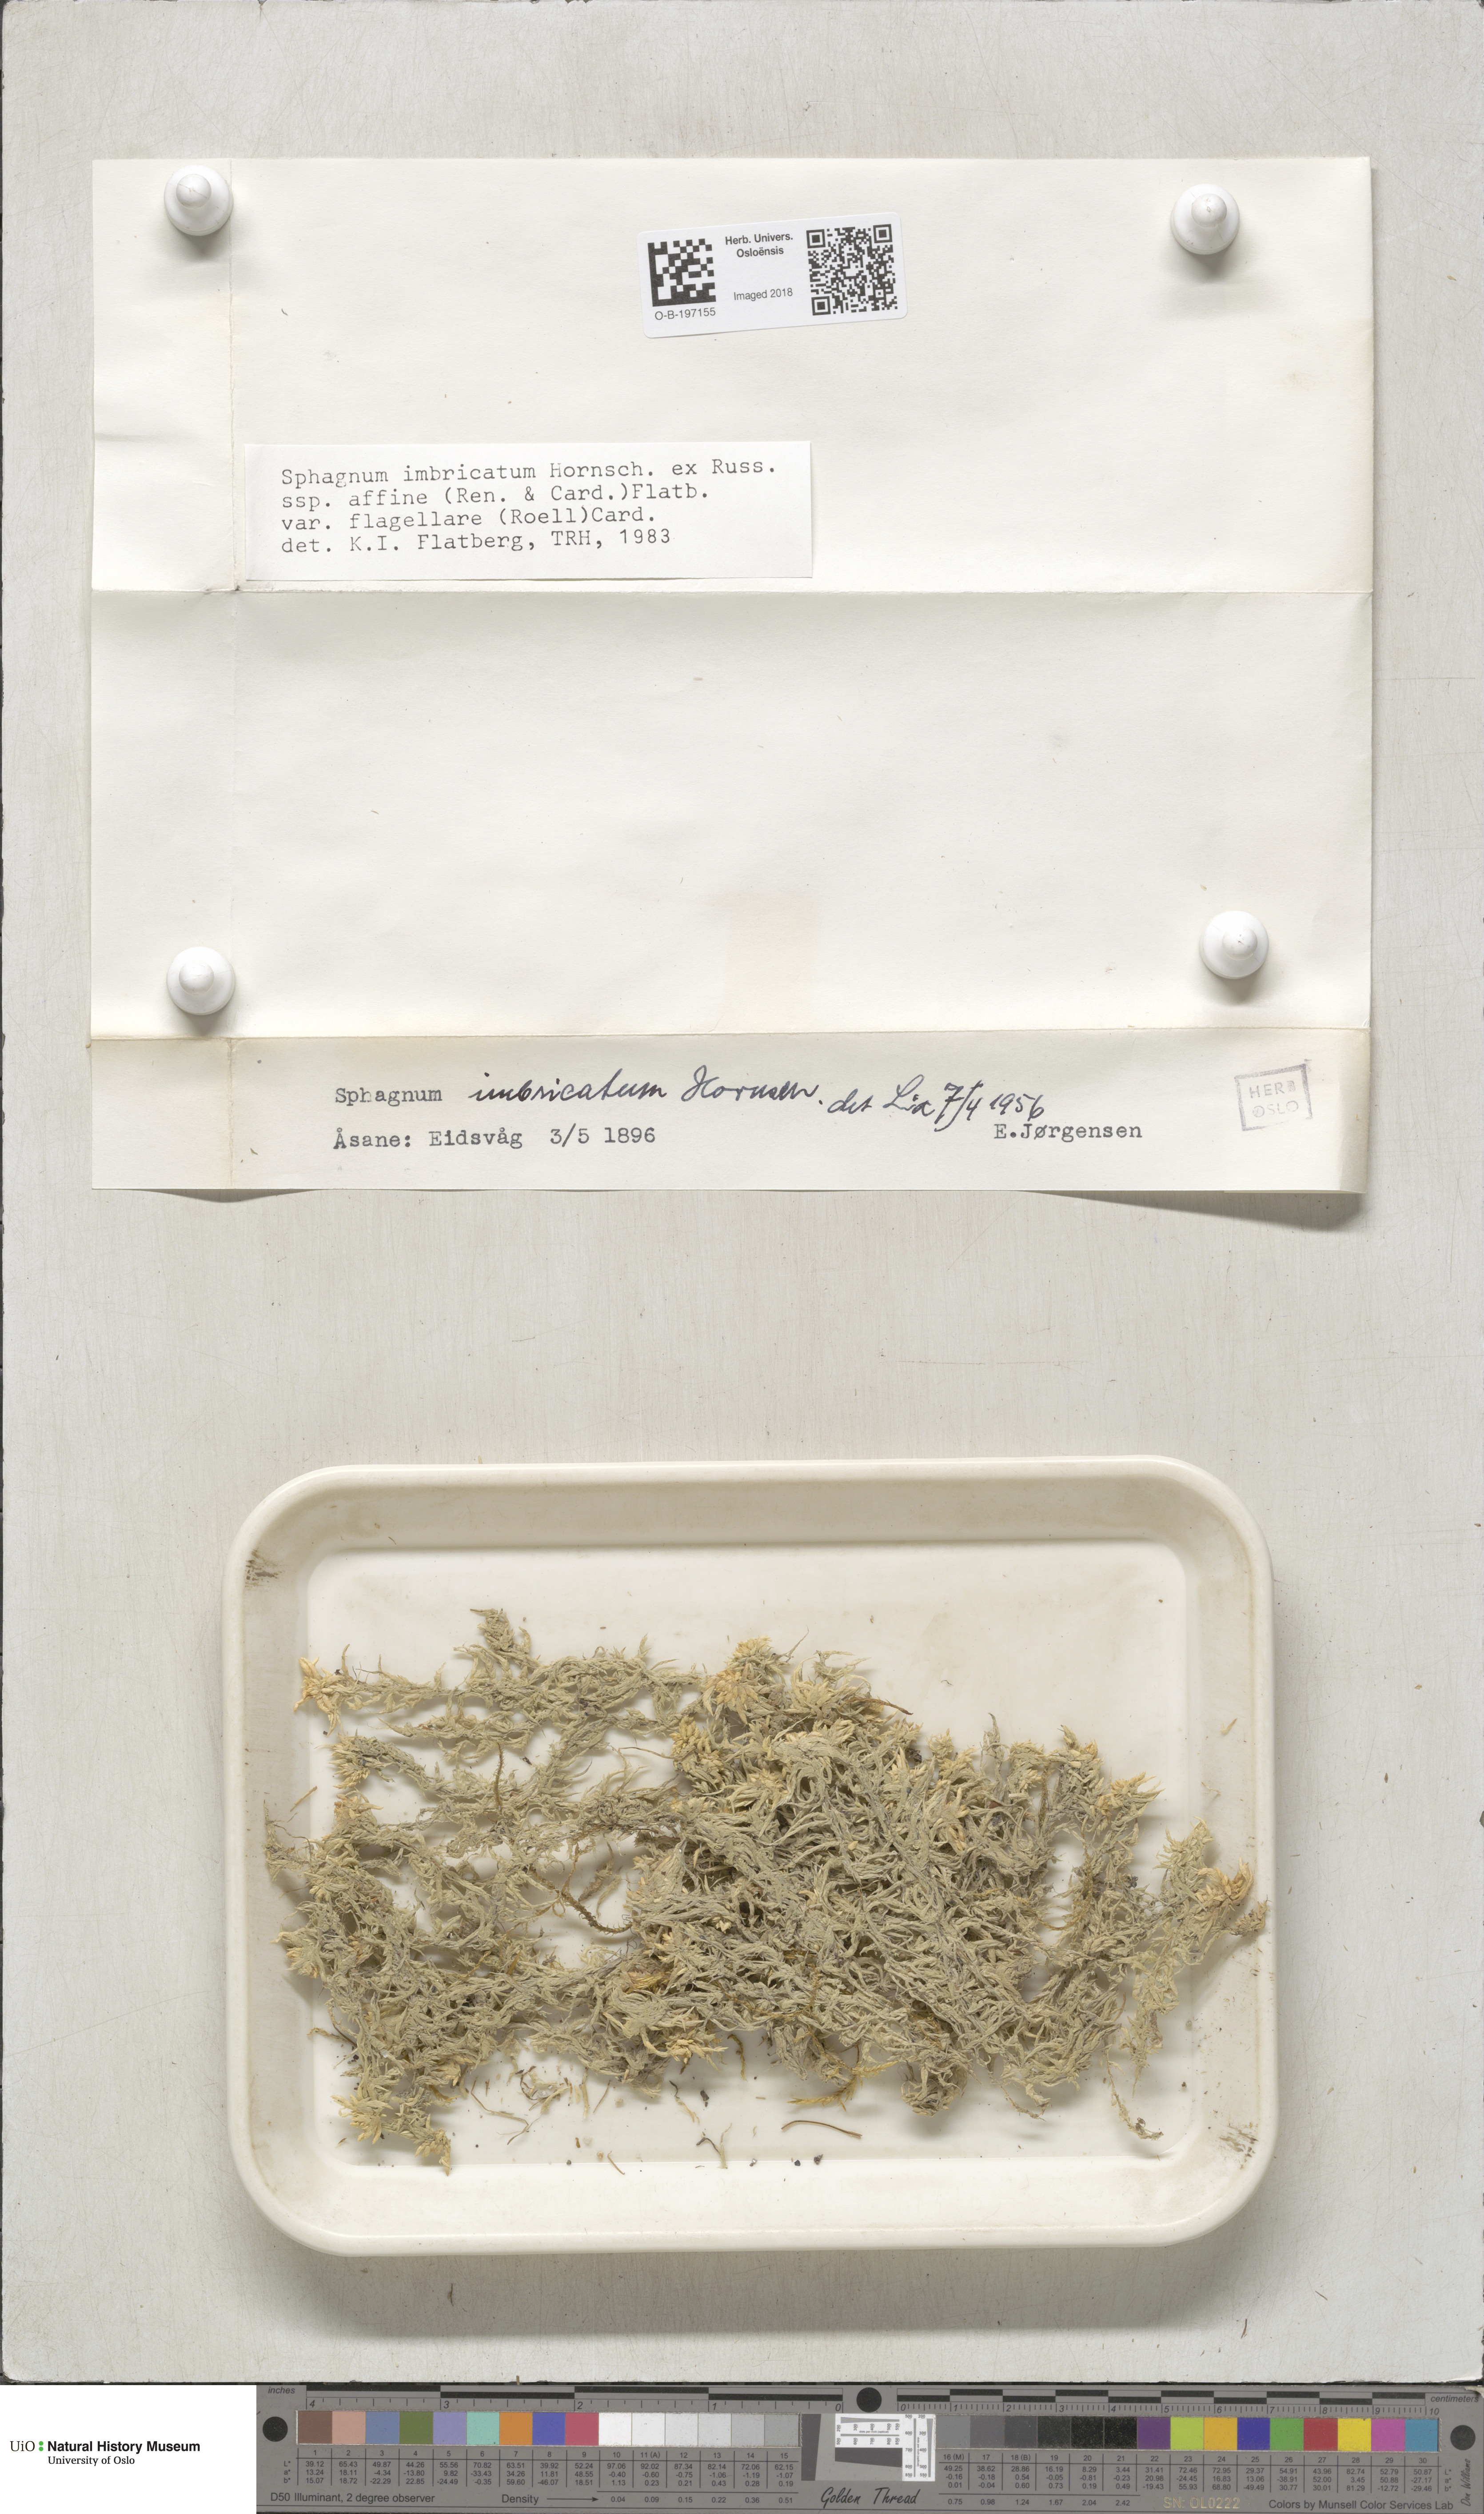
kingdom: Plantae
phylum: Bryophyta
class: Sphagnopsida
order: Sphagnales
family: Sphagnaceae
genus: Sphagnum
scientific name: Sphagnum affine
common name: Imbricate peat moss
